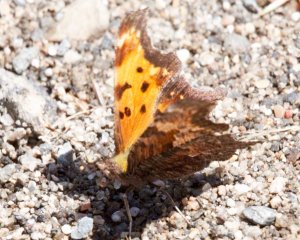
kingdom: Animalia
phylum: Arthropoda
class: Insecta
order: Lepidoptera
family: Nymphalidae
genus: Polygonia
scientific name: Polygonia progne
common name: Gray Comma
